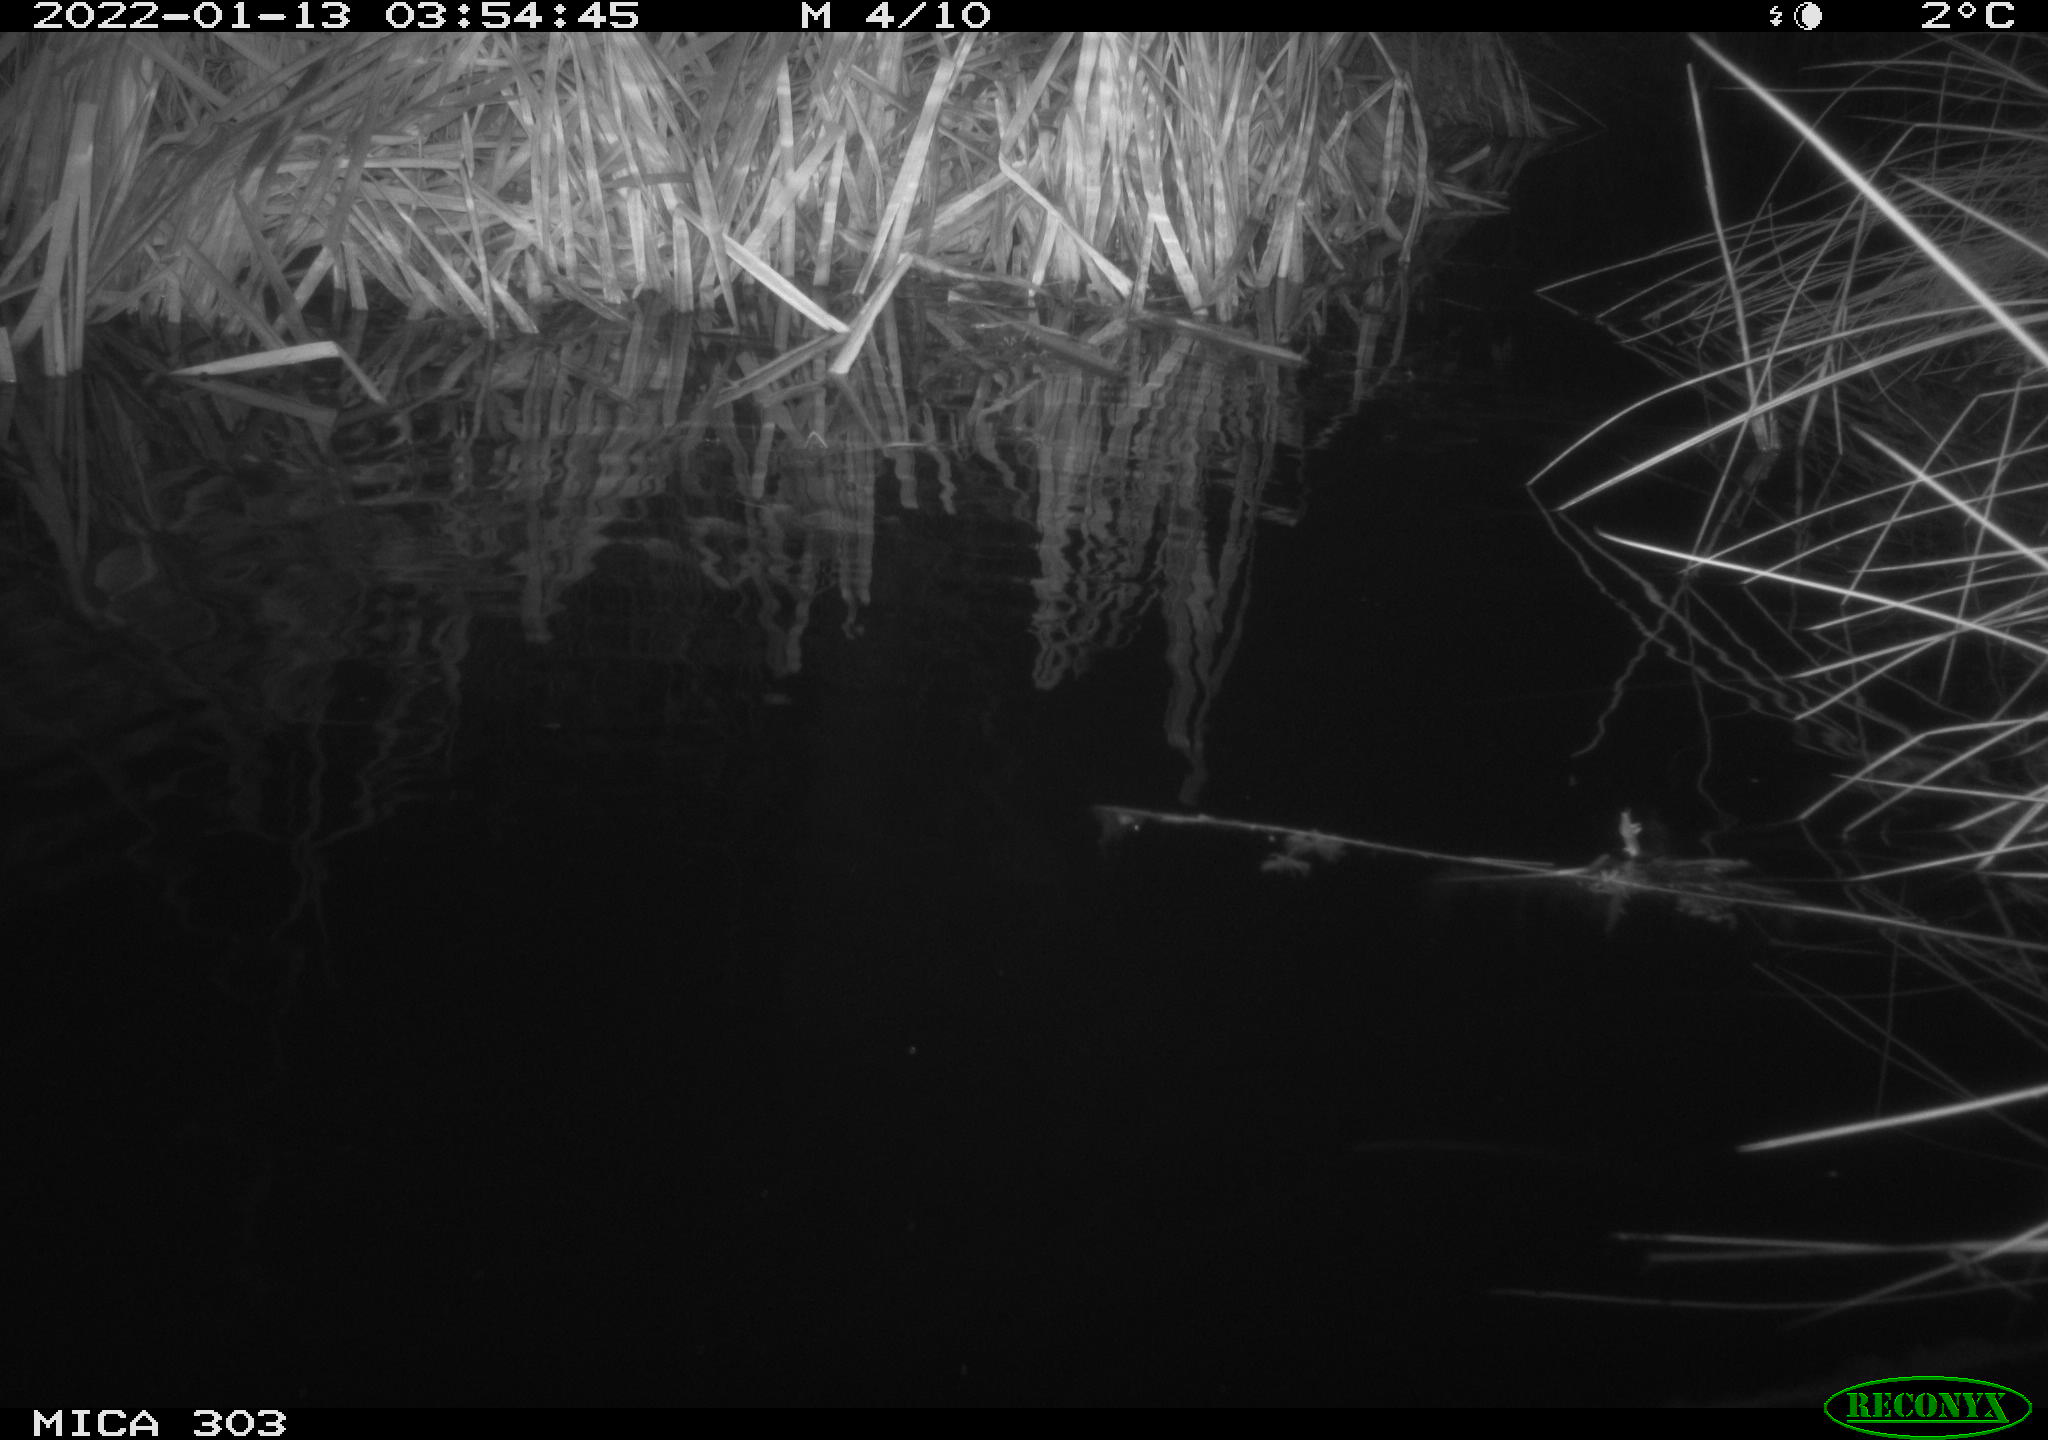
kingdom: Animalia
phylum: Chordata
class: Mammalia
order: Rodentia
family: Cricetidae
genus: Ondatra
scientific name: Ondatra zibethicus
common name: Muskrat
